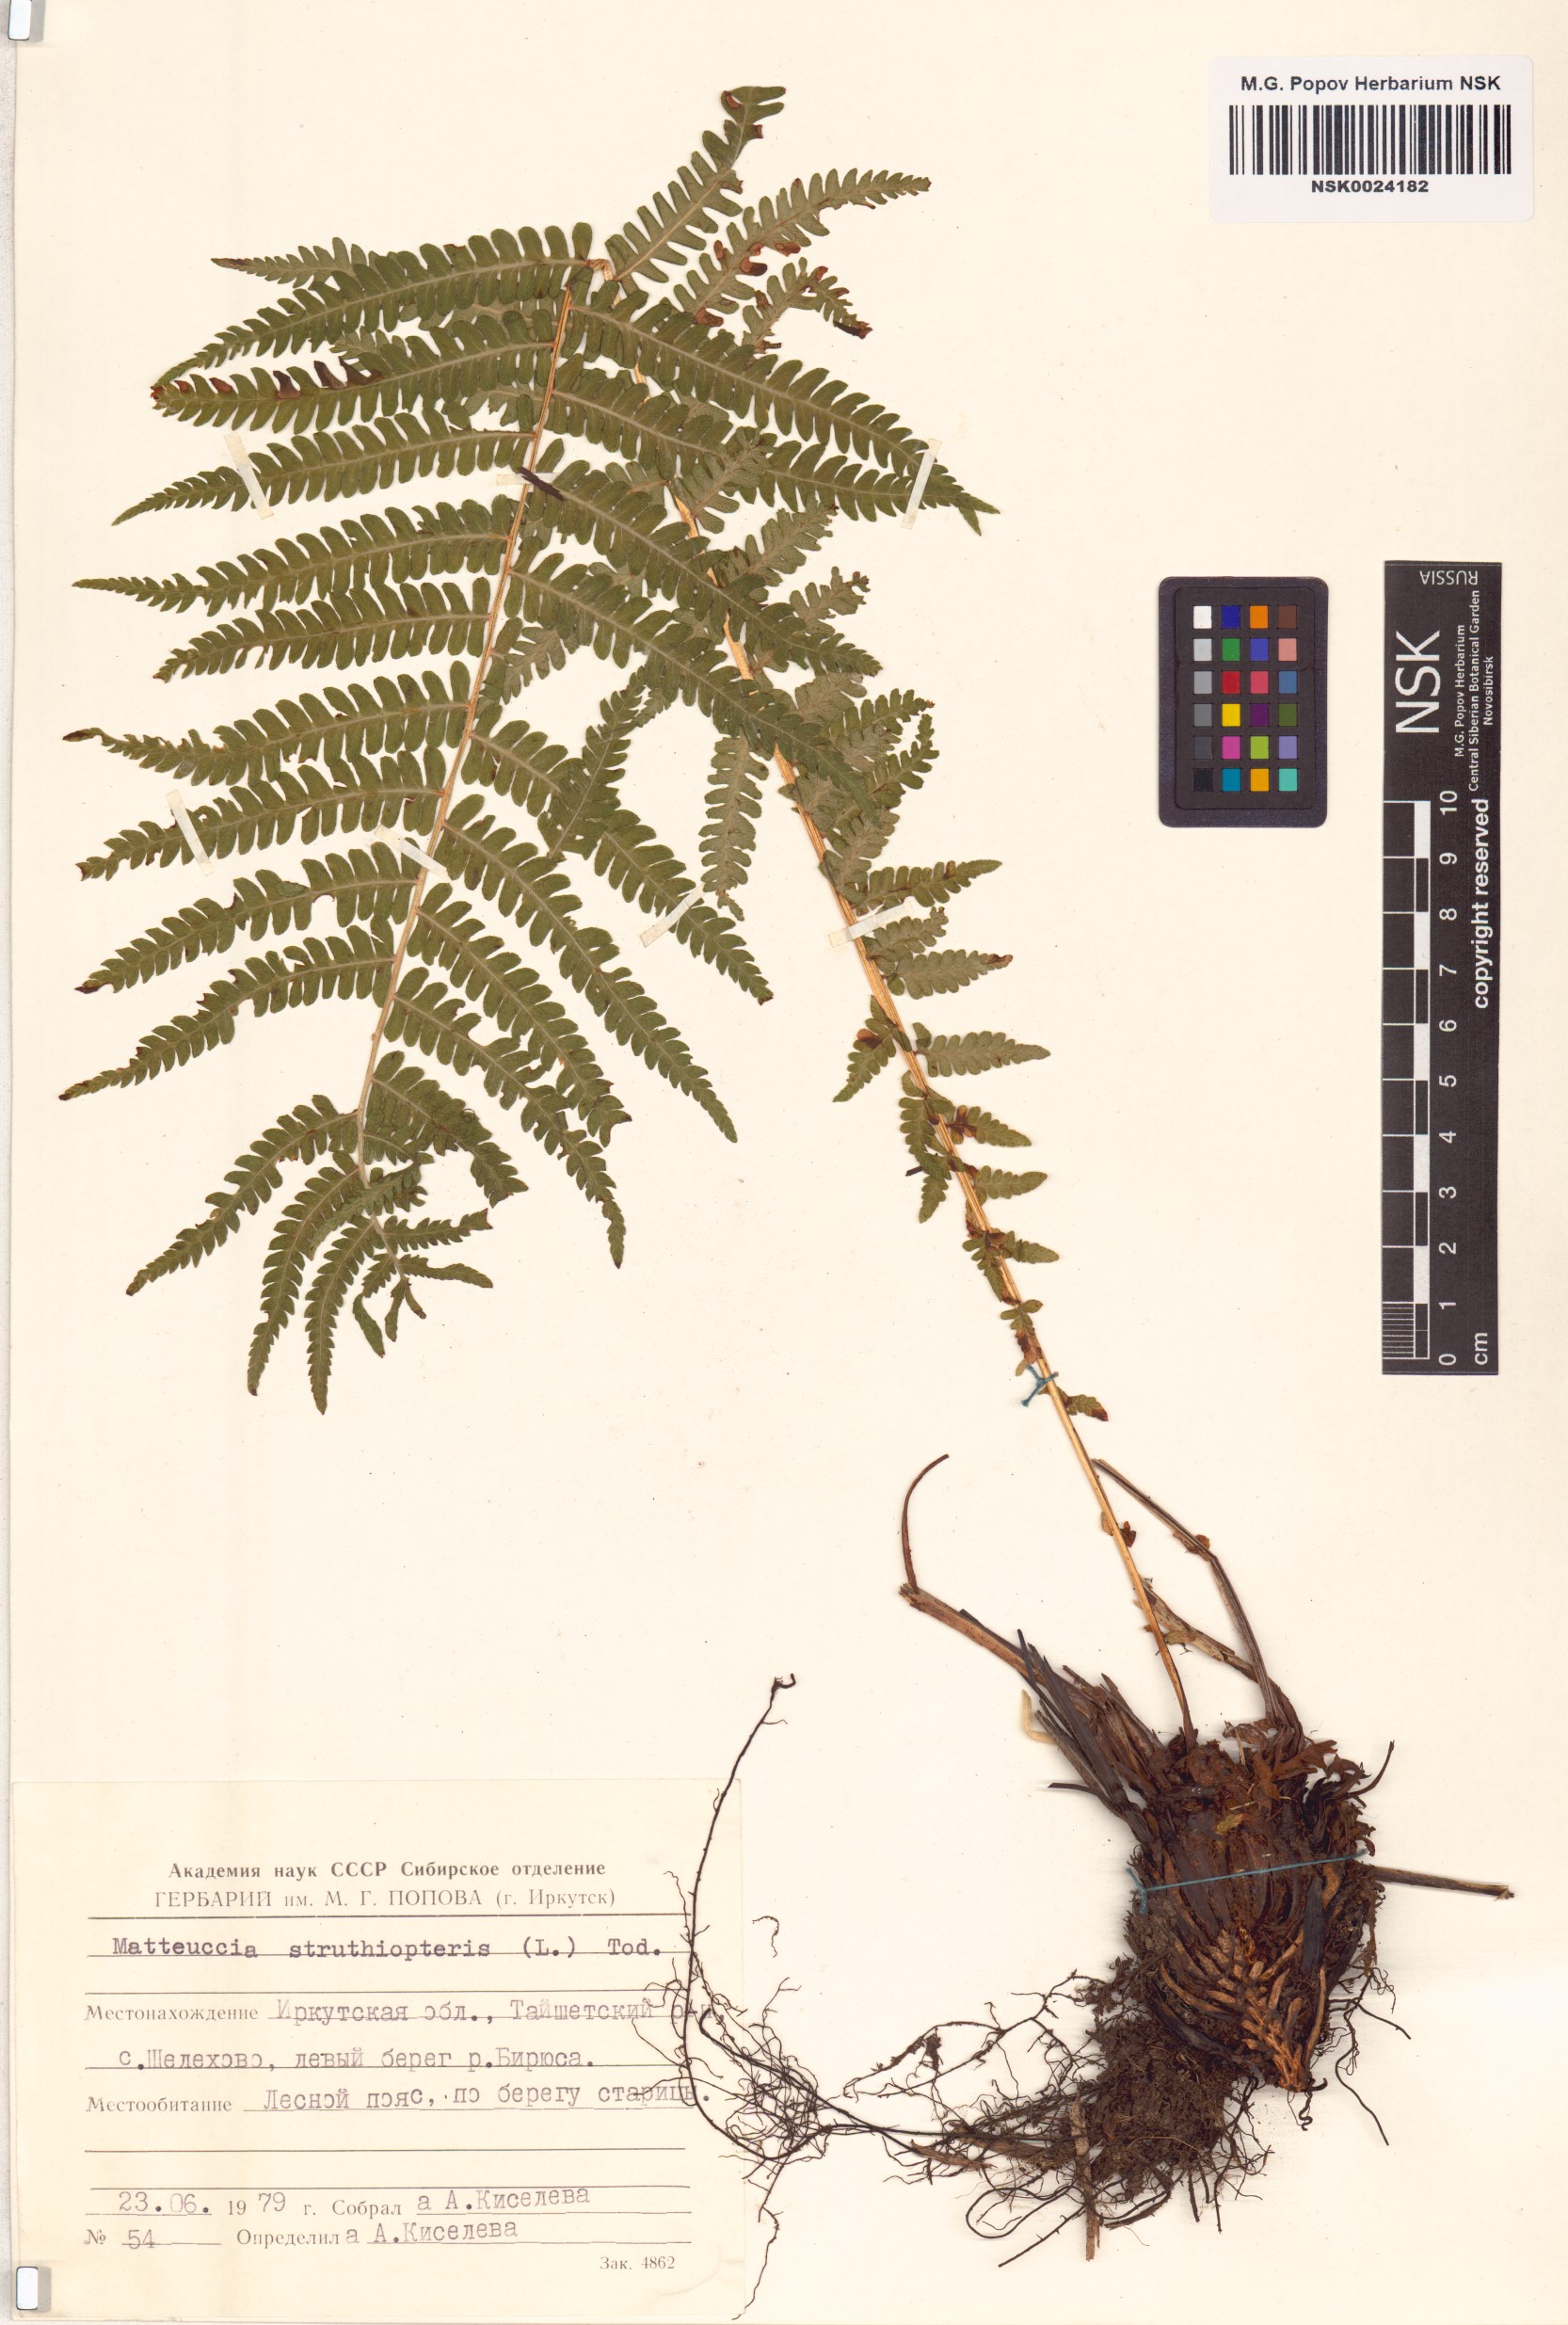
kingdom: Plantae
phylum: Tracheophyta
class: Polypodiopsida
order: Polypodiales
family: Onocleaceae
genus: Matteuccia
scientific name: Matteuccia struthiopteris
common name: Ostrich fern
